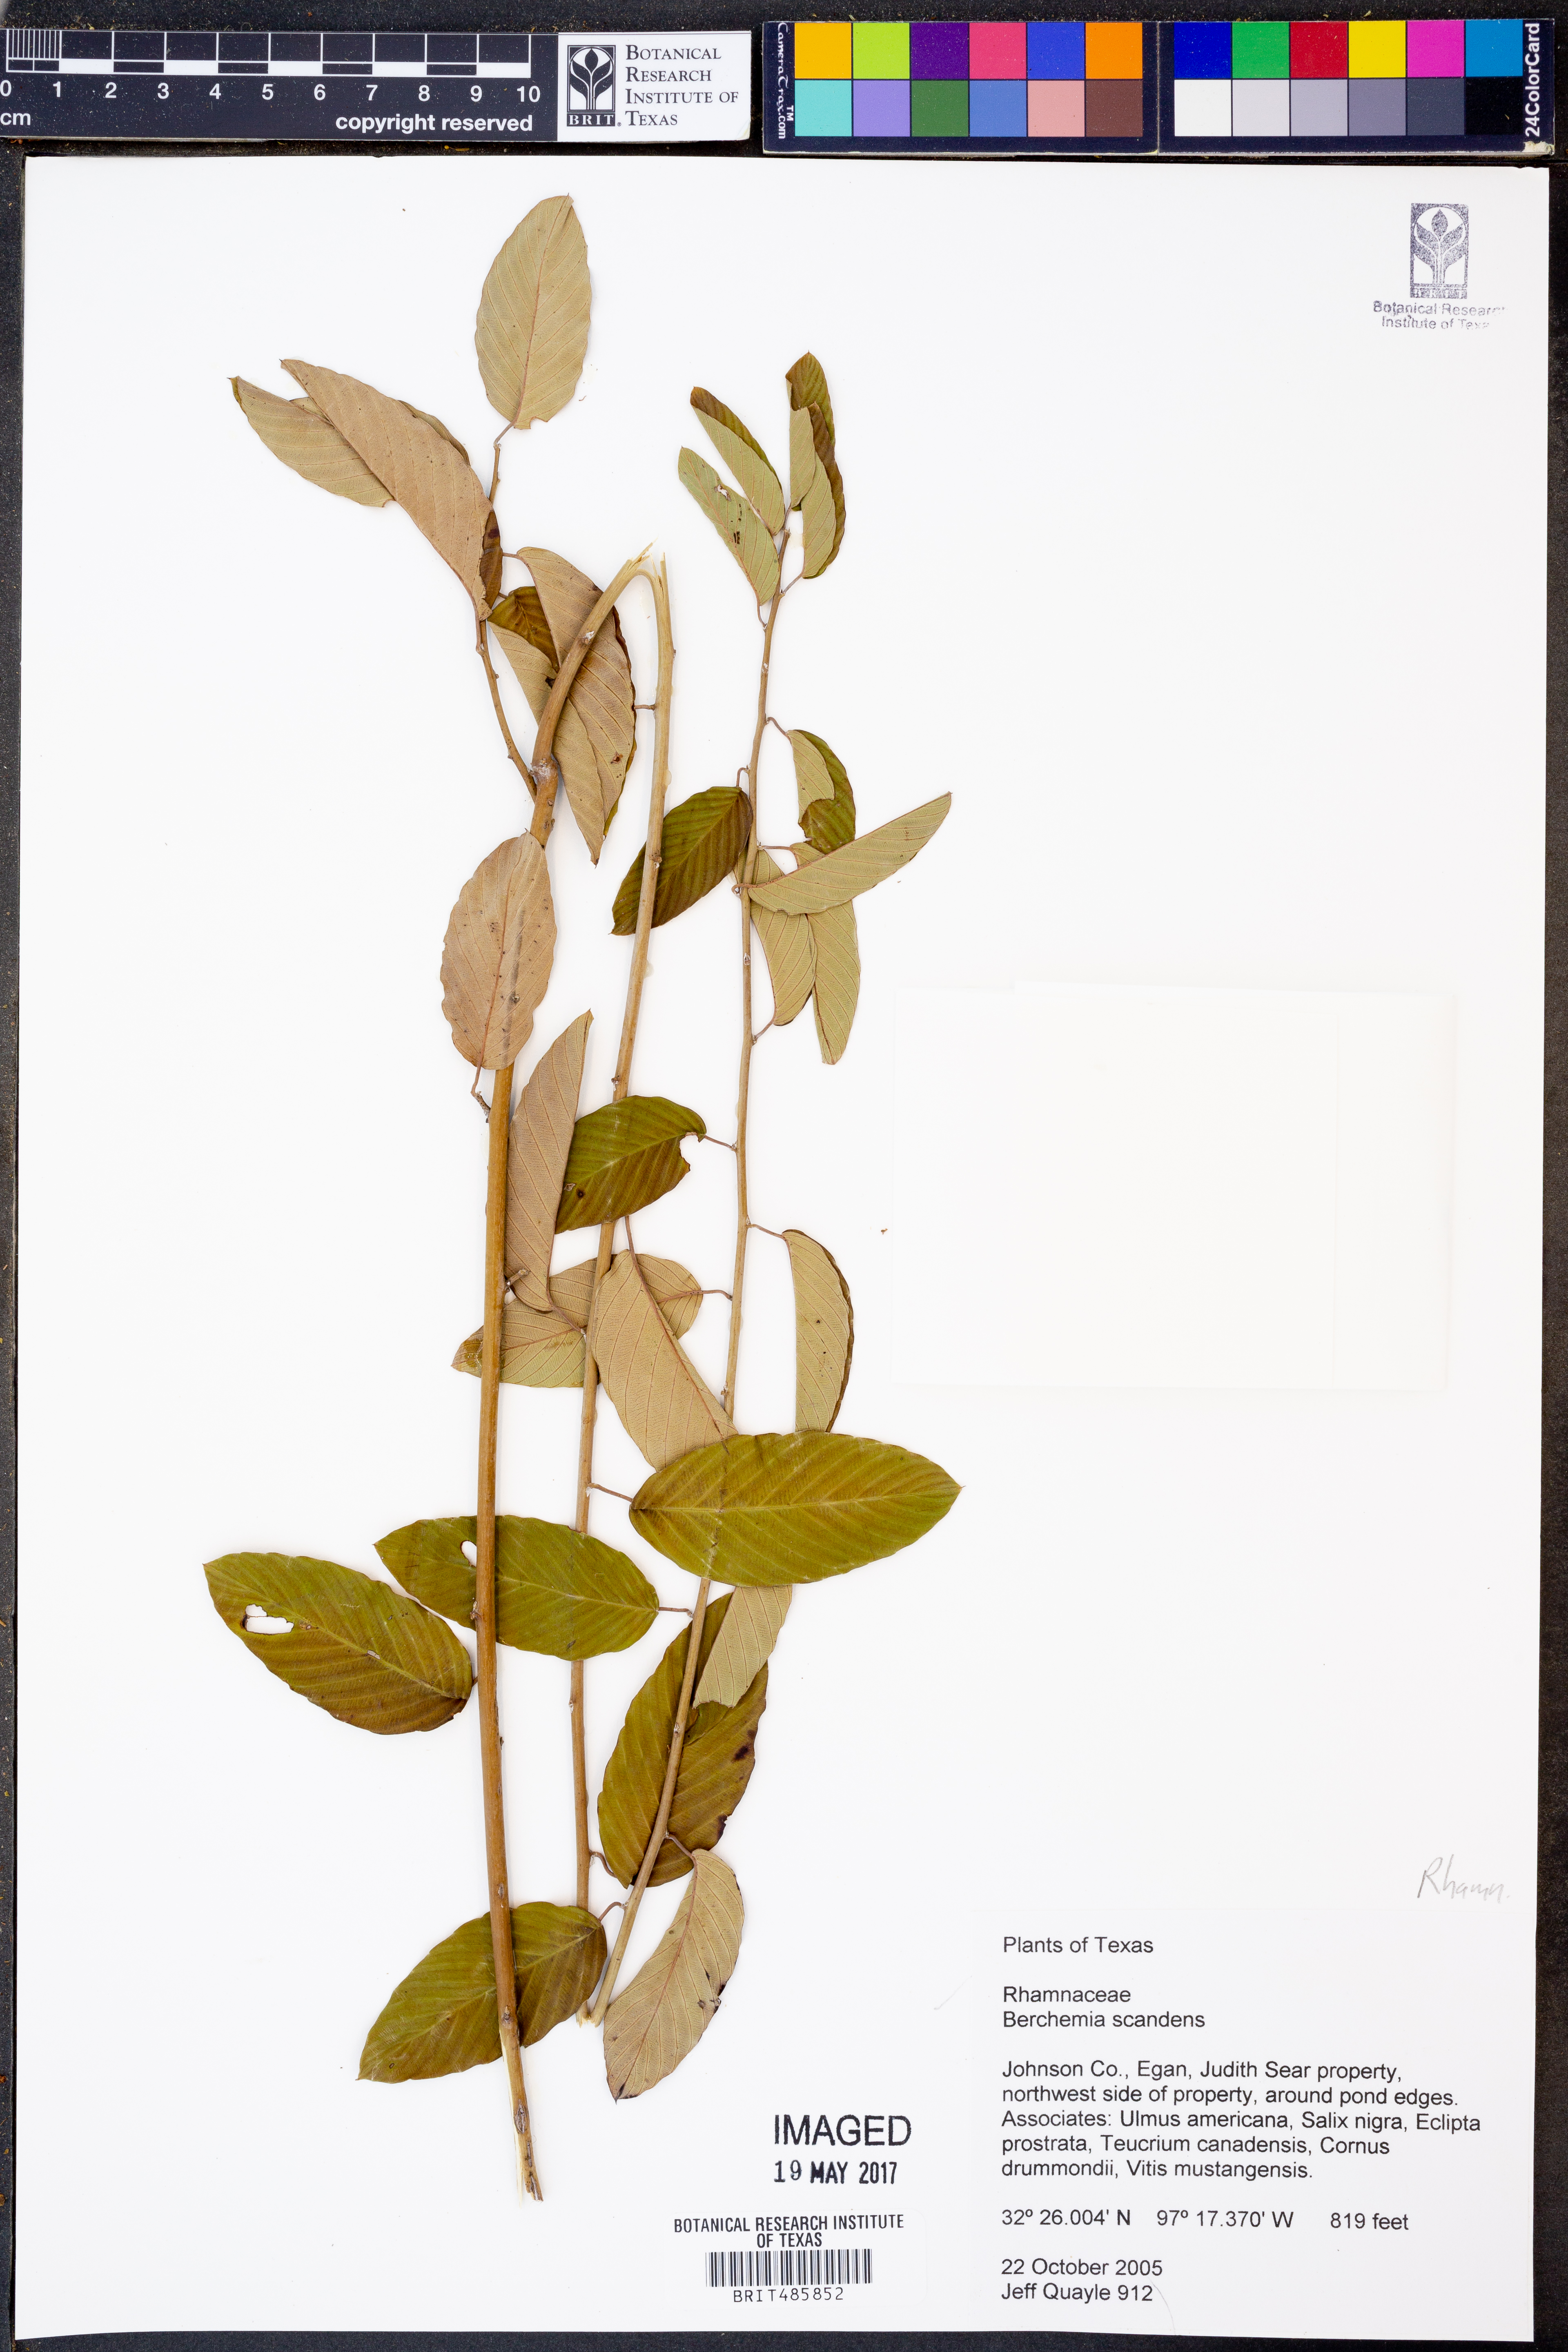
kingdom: Plantae
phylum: Tracheophyta
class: Magnoliopsida
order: Rosales
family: Rhamnaceae
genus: Berchemia
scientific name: Berchemia scandens
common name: Supplejack
